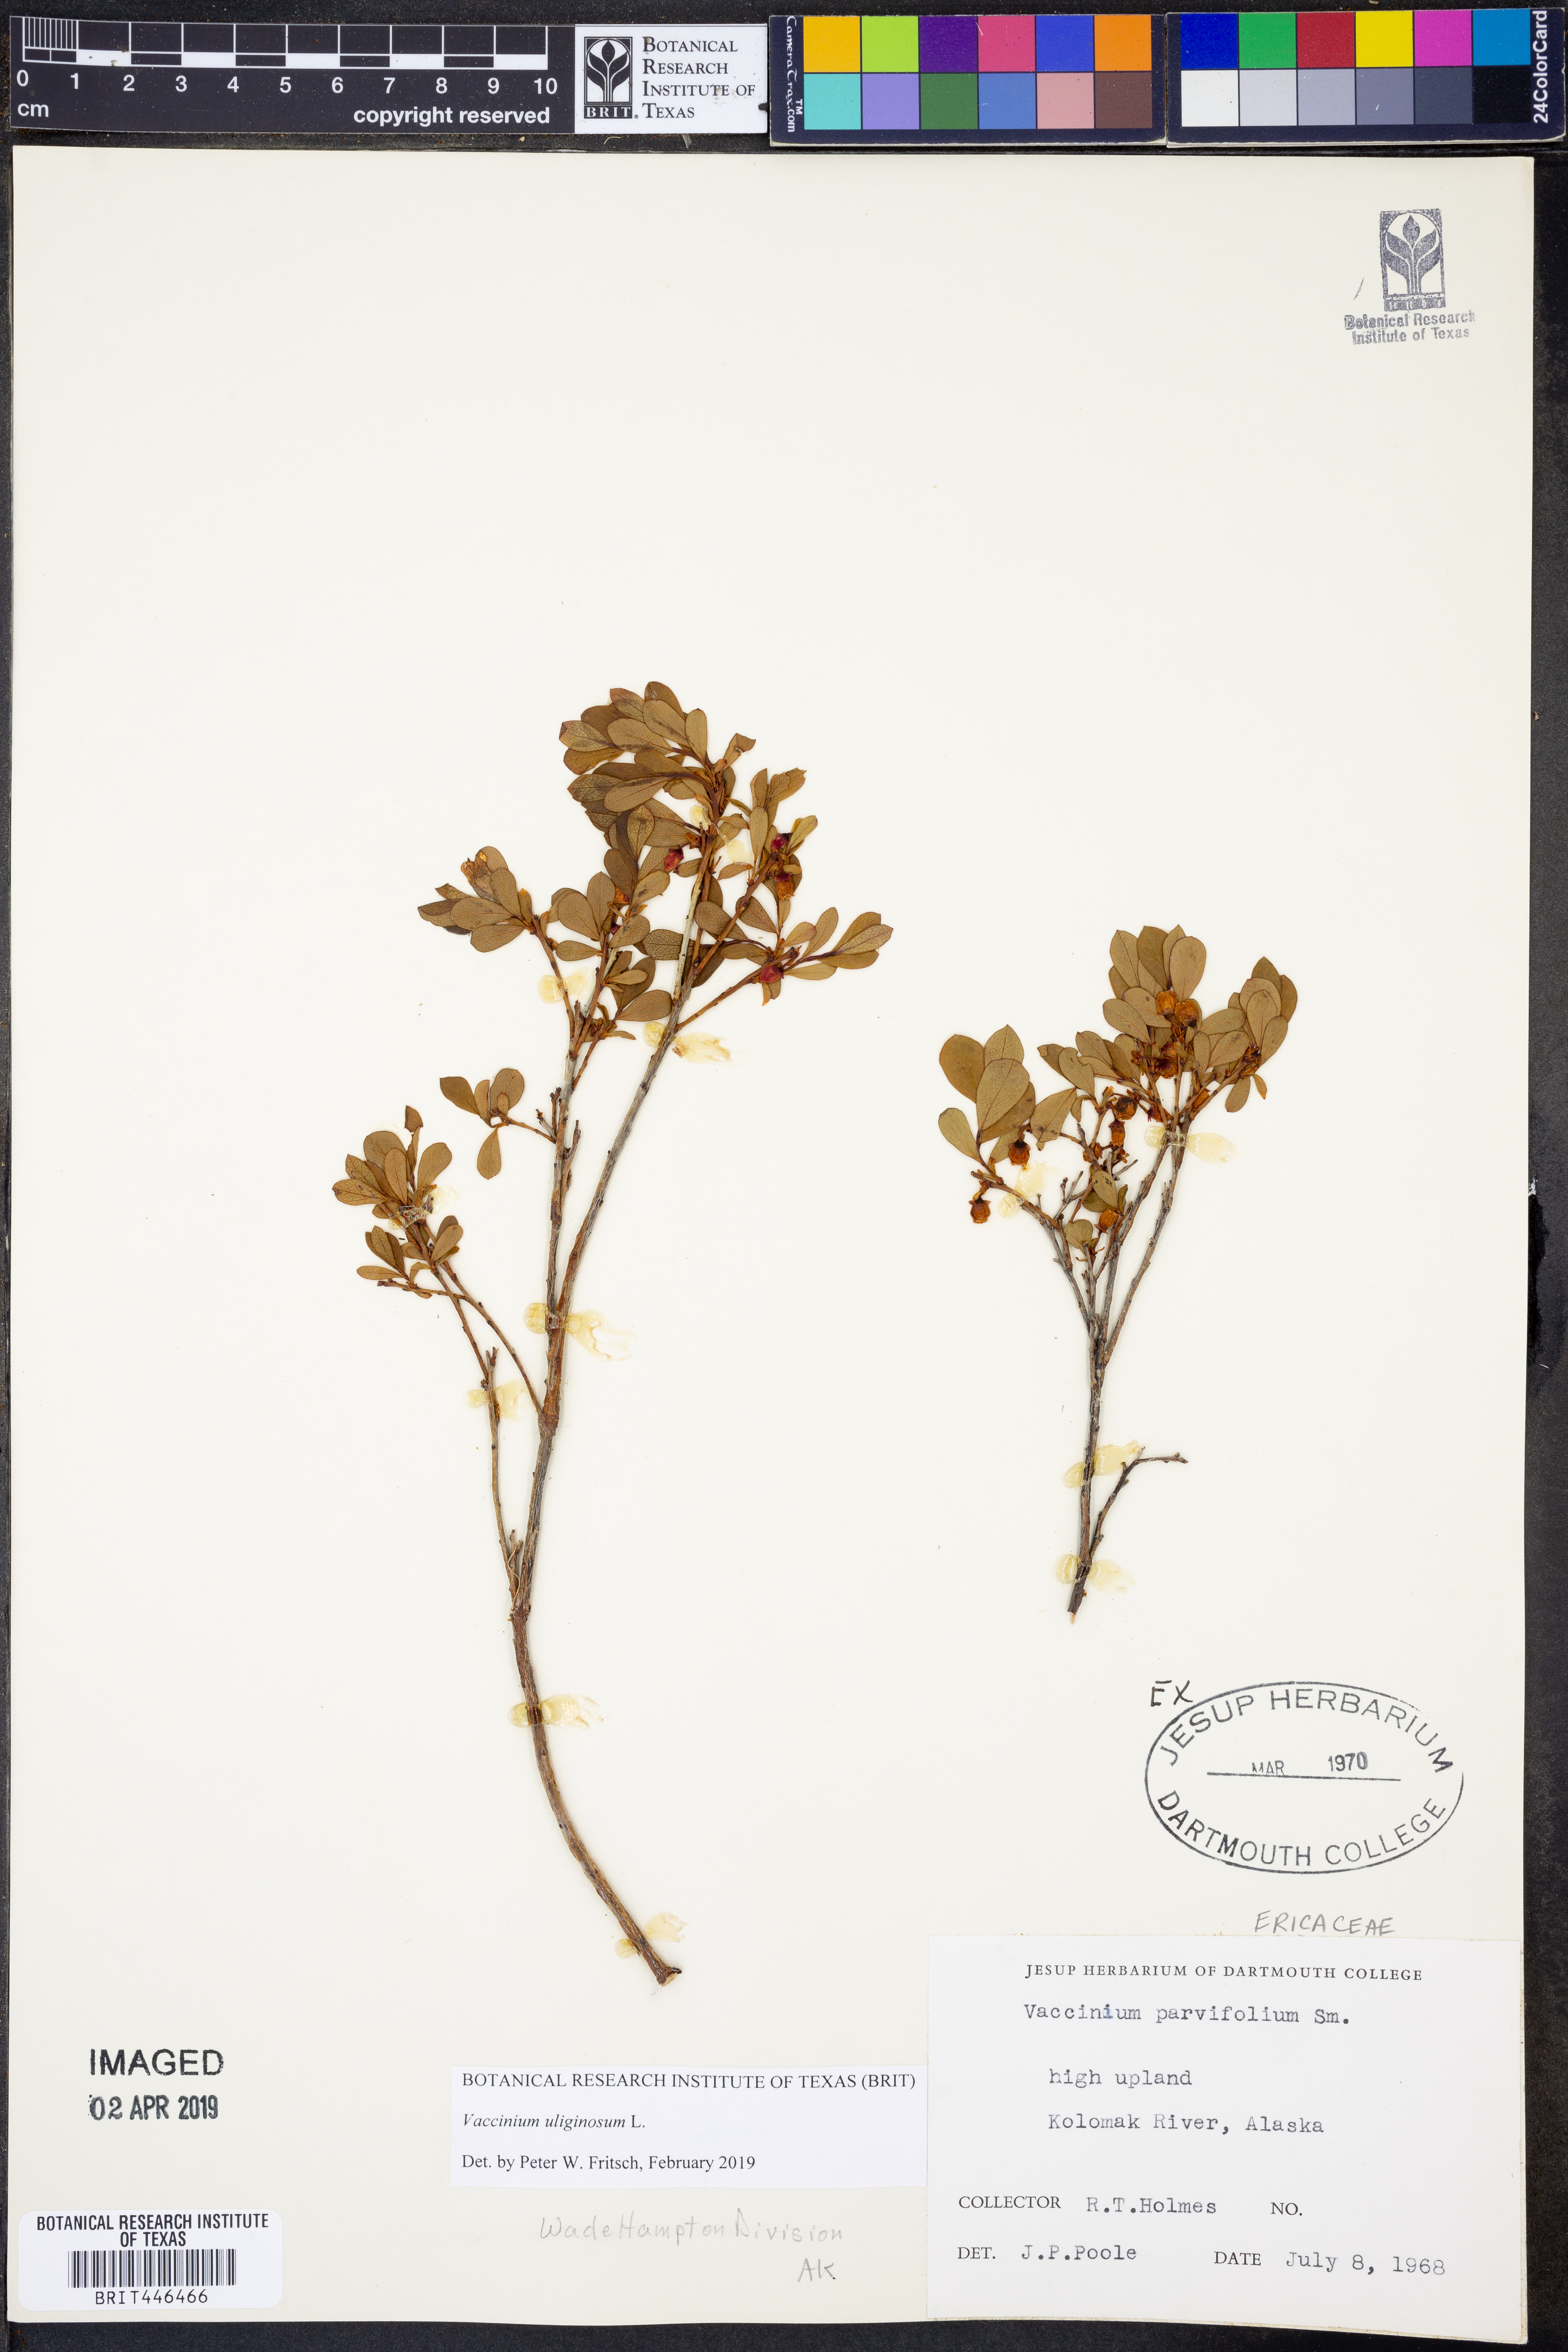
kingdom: Plantae
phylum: Tracheophyta
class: Magnoliopsida
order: Ericales
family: Ericaceae
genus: Vaccinium
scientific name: Vaccinium uliginosum
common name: Bog bilberry
